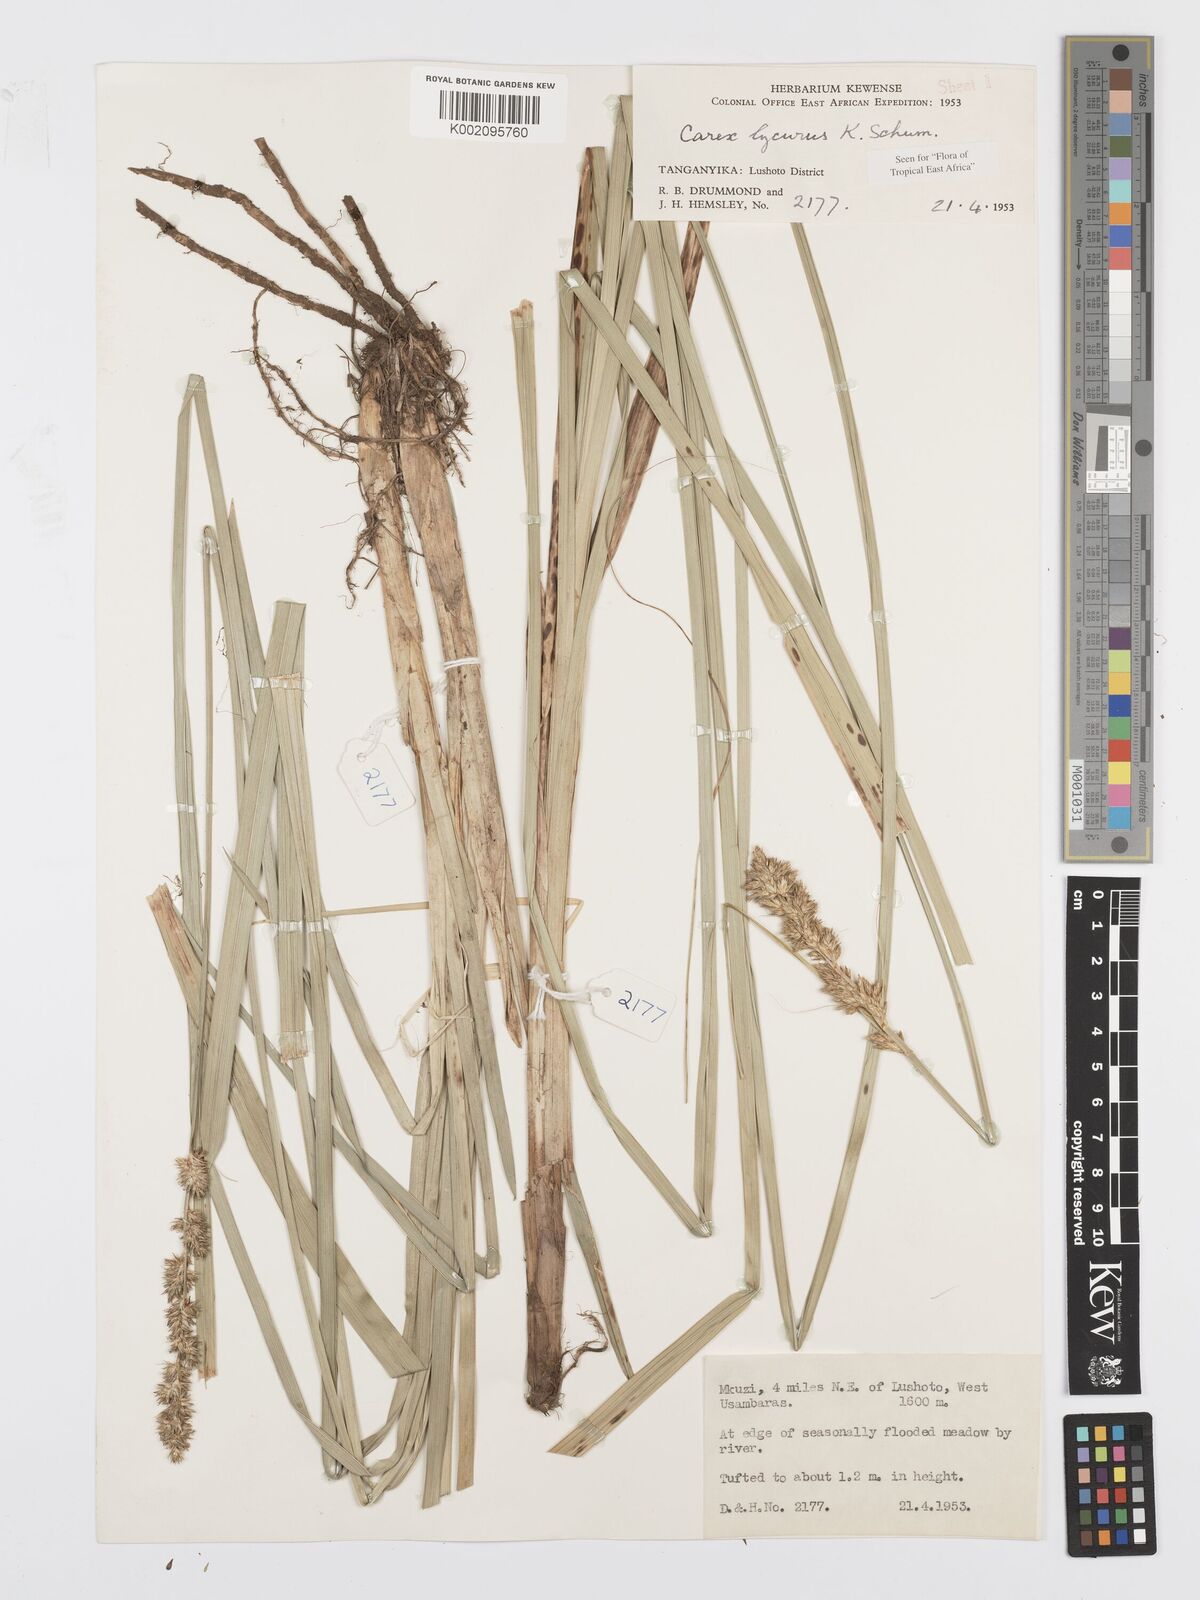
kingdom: Plantae
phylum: Tracheophyta
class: Liliopsida
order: Poales
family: Cyperaceae
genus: Carex
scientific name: Carex lycurus
